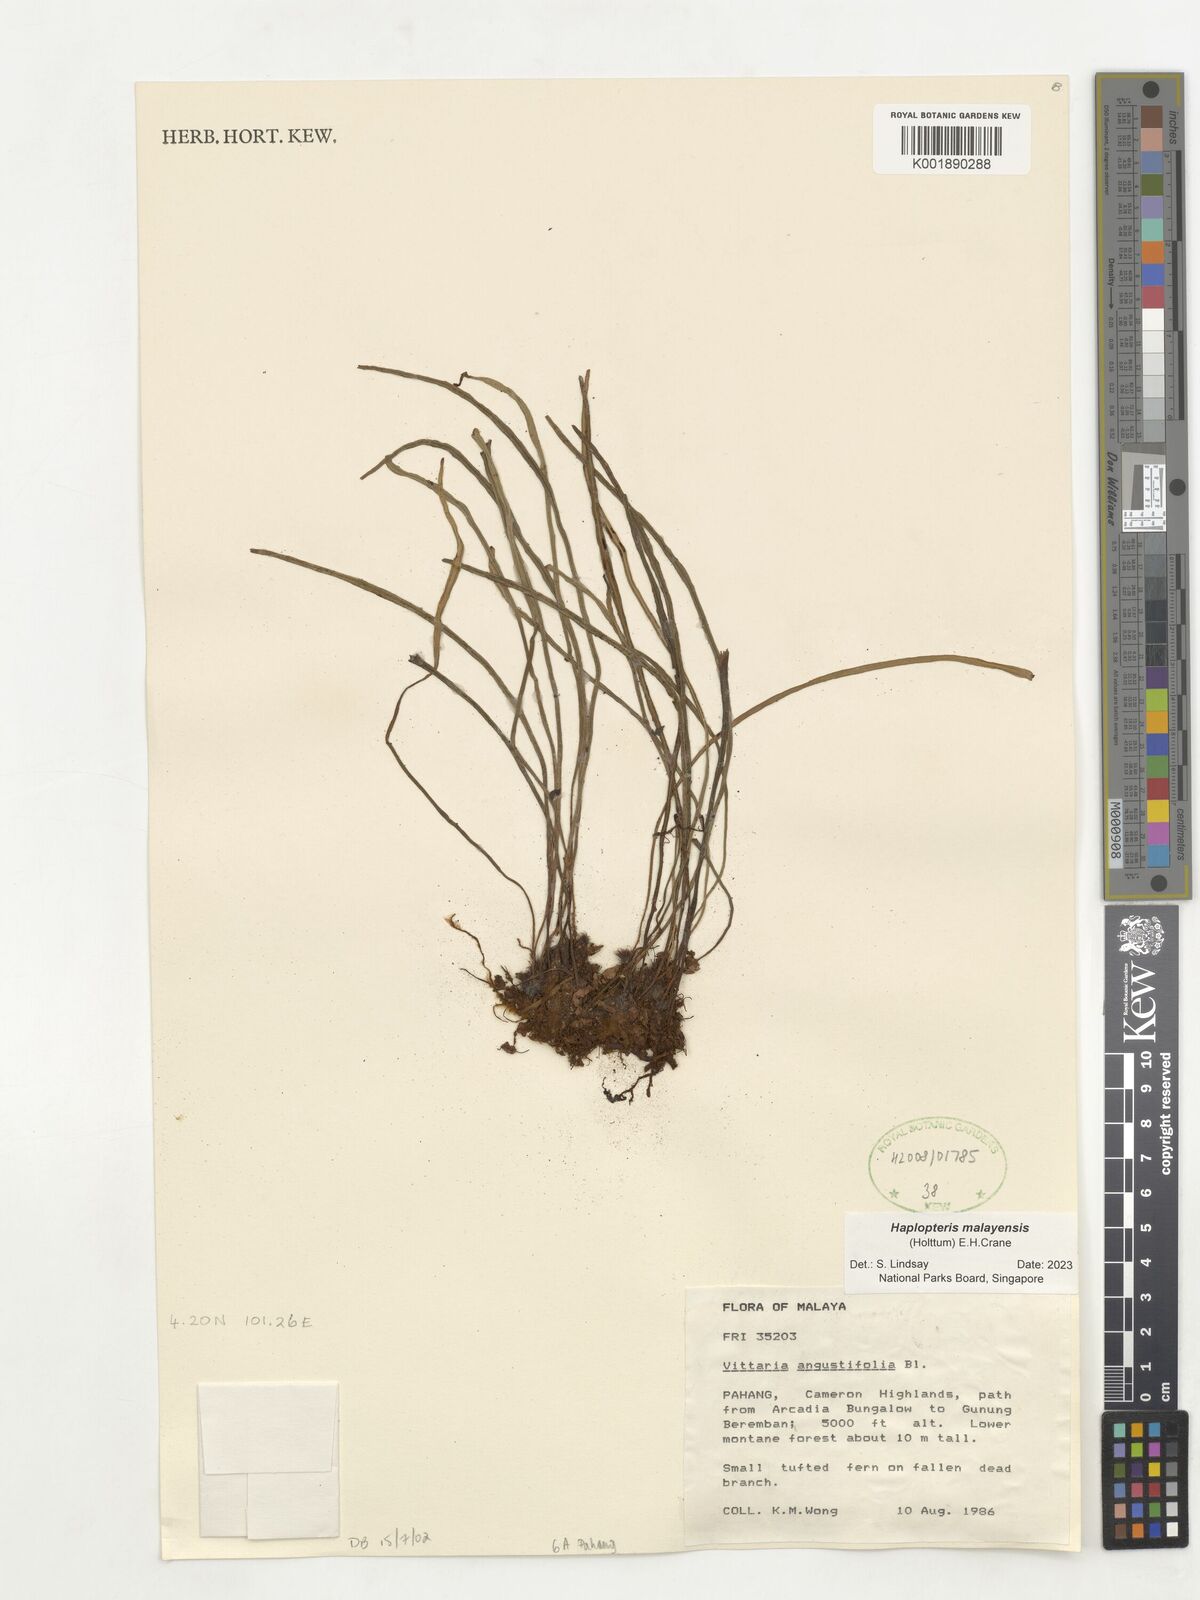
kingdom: Plantae
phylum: Tracheophyta
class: Polypodiopsida
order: Polypodiales
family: Pteridaceae
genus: Haplopteris
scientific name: Haplopteris malayensis
